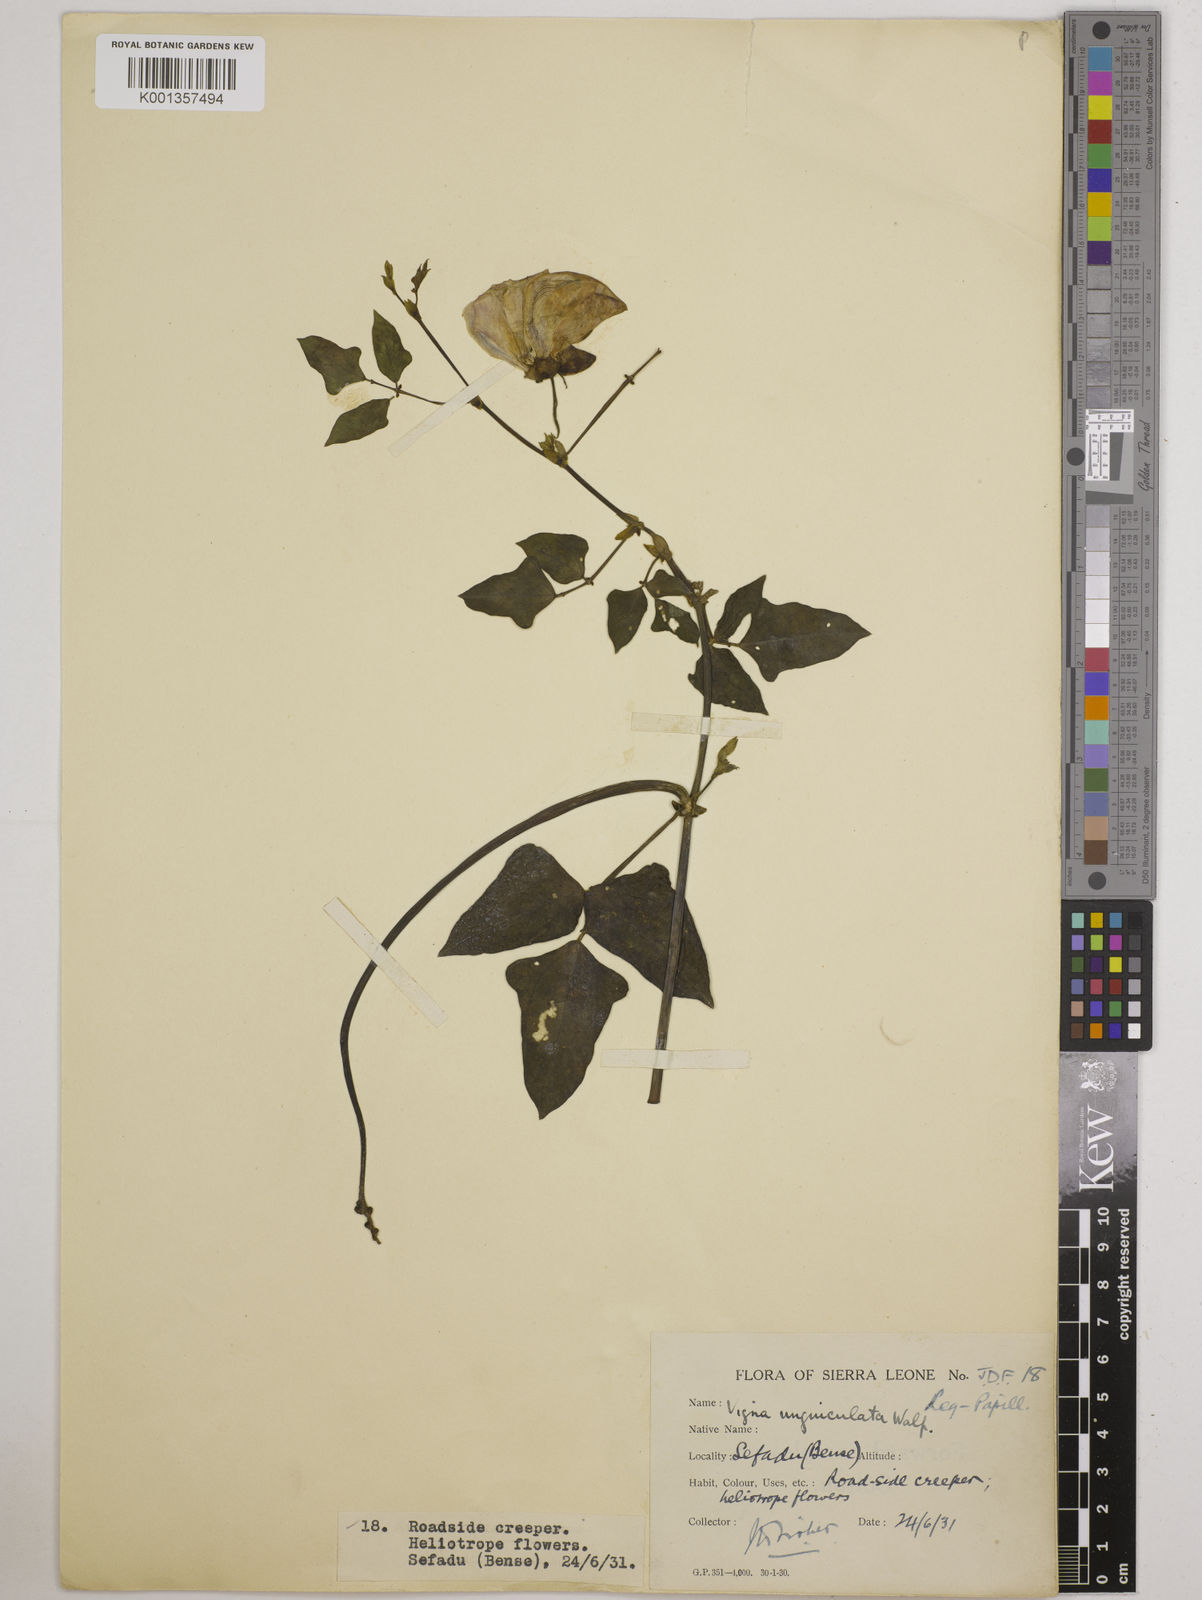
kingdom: Plantae
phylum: Tracheophyta
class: Magnoliopsida
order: Fabales
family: Fabaceae
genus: Vigna
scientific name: Vigna
